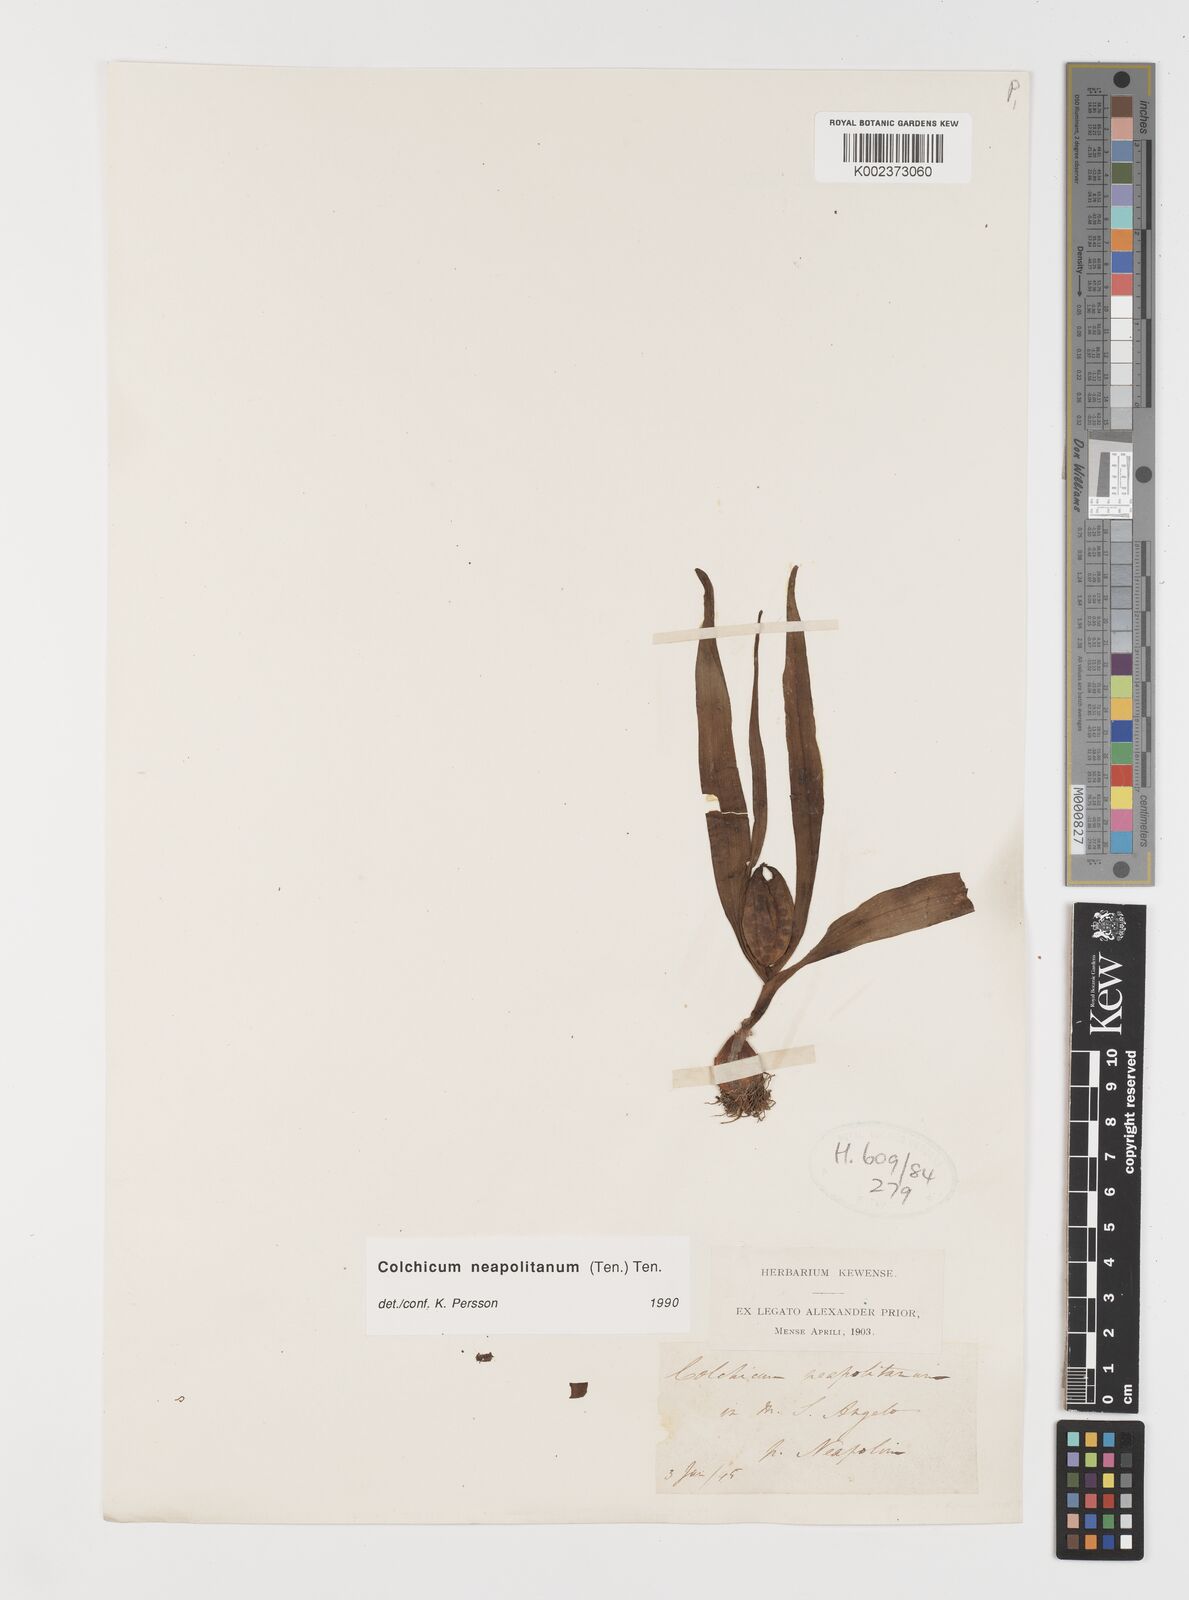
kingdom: Plantae
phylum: Tracheophyta
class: Liliopsida
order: Liliales
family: Colchicaceae
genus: Colchicum
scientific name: Colchicum neapolitanum
